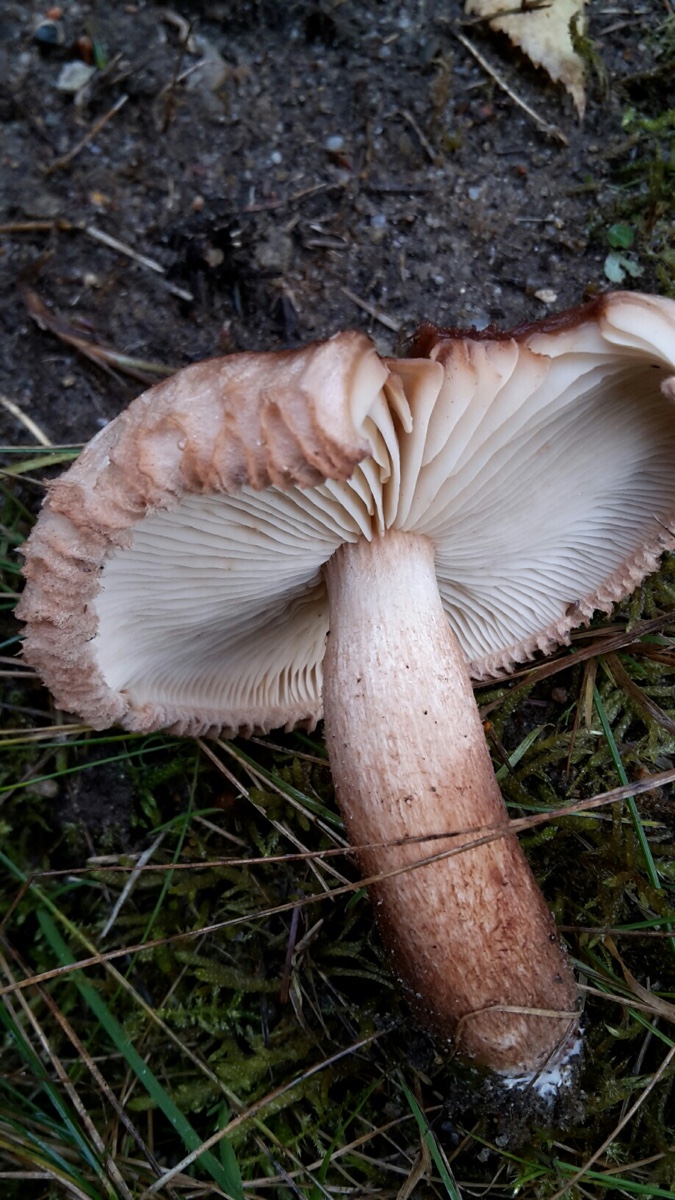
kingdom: Fungi
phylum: Basidiomycota
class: Agaricomycetes
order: Agaricales
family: Tricholomataceae
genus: Tricholoma
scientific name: Tricholoma vaccinum
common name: ko-ridderhat
